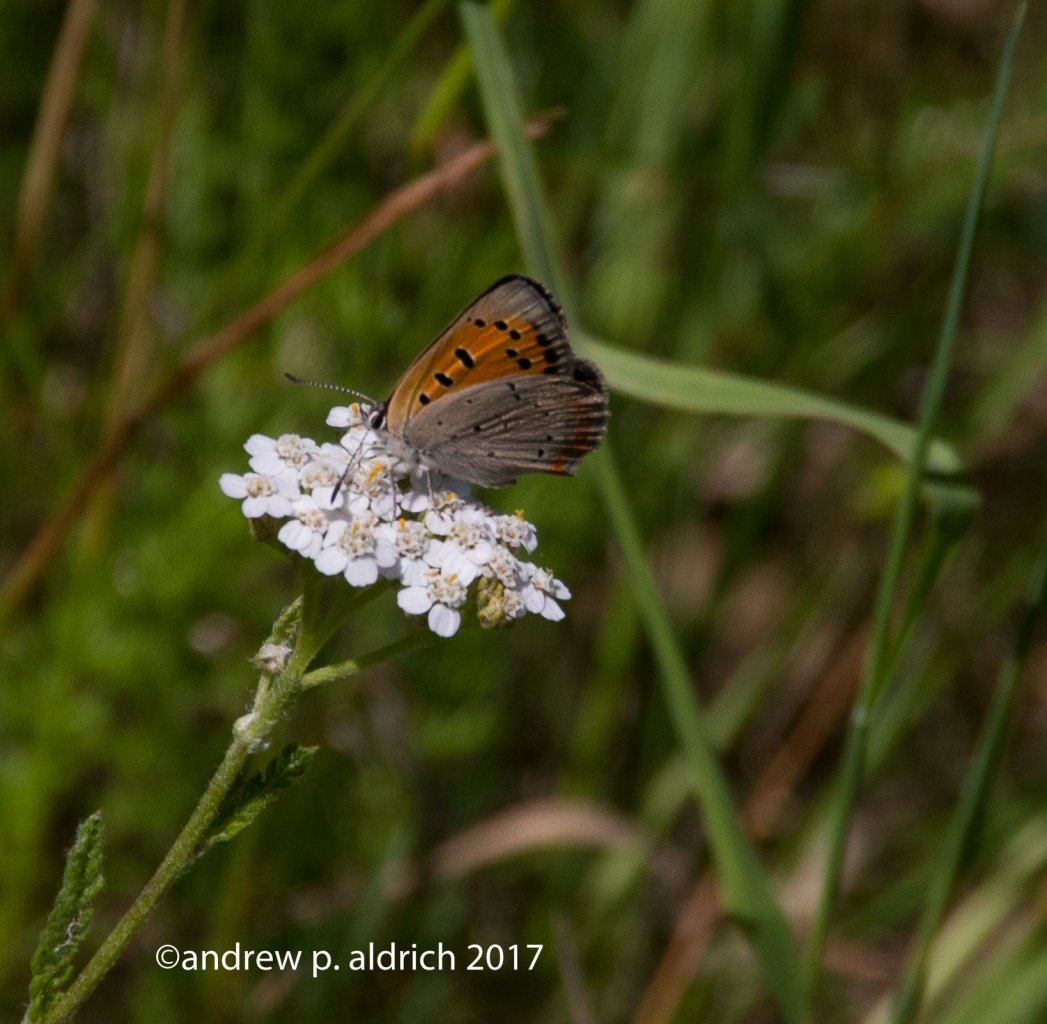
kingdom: Animalia
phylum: Arthropoda
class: Insecta
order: Lepidoptera
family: Lycaenidae
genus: Lycaena
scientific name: Lycaena phlaeas
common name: American Copper
